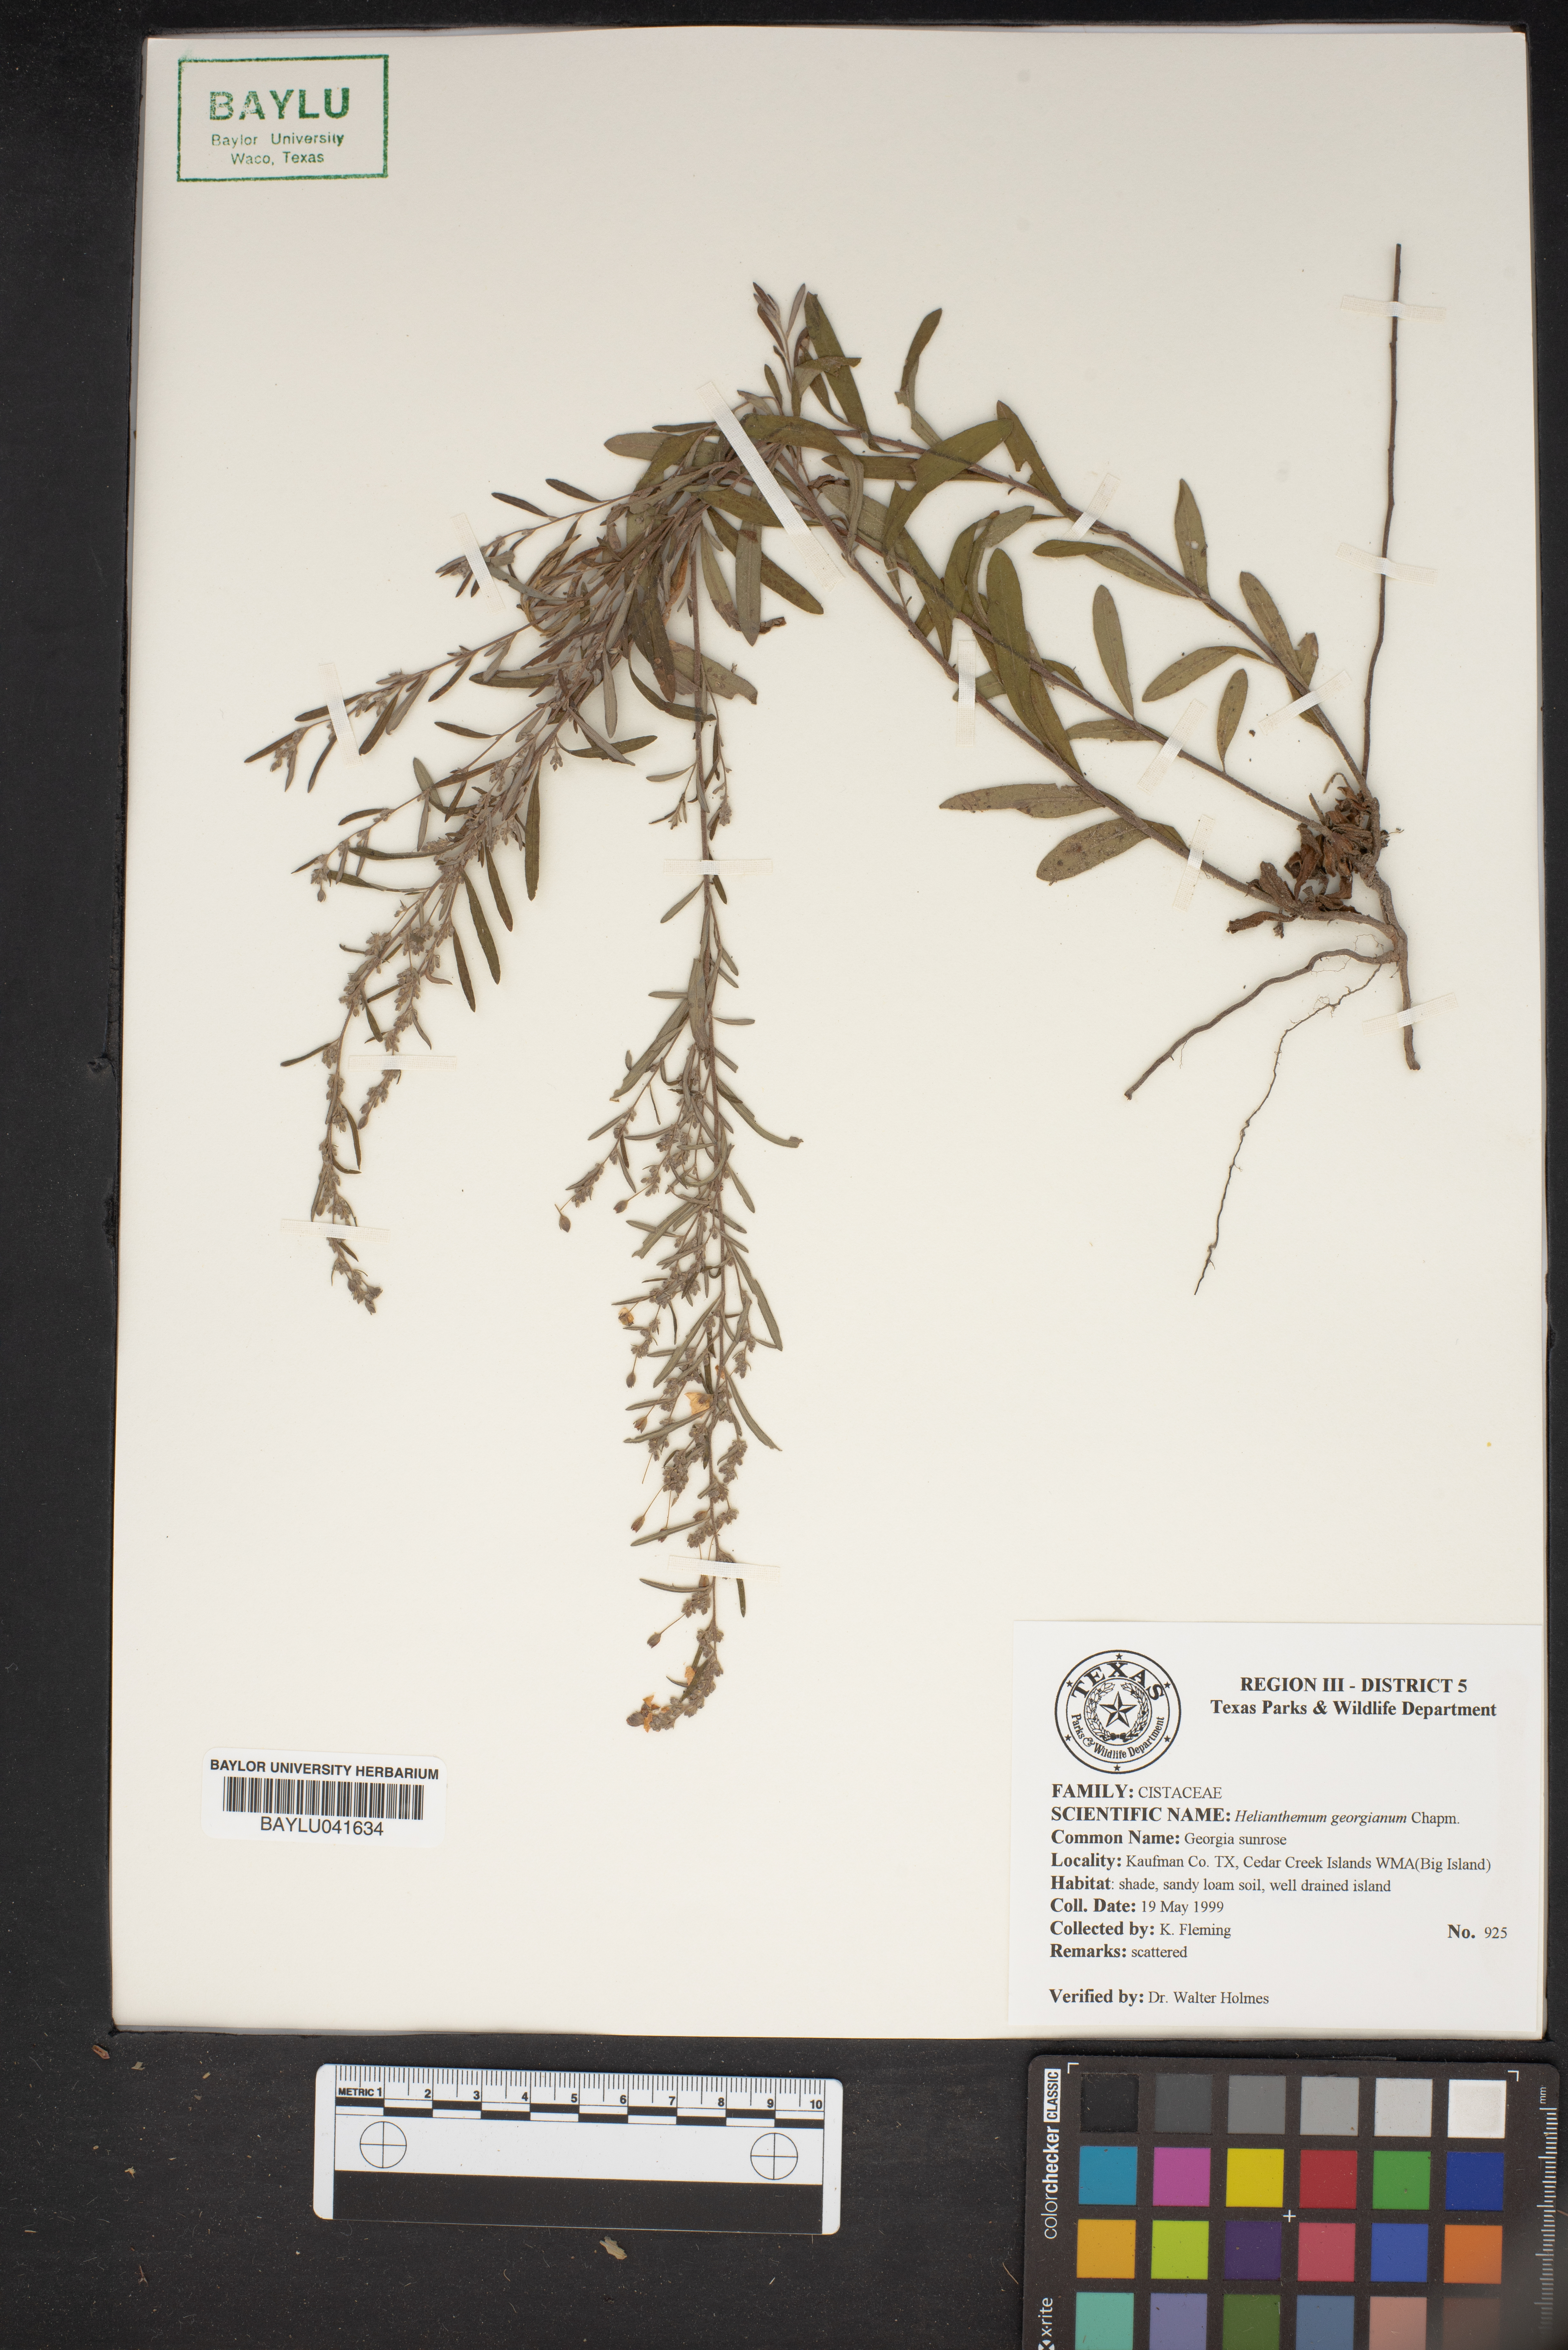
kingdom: Plantae
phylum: Tracheophyta
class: Magnoliopsida
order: Malvales
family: Cistaceae
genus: Crocanthemum
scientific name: Crocanthemum georgianum
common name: Georgia frostweed
